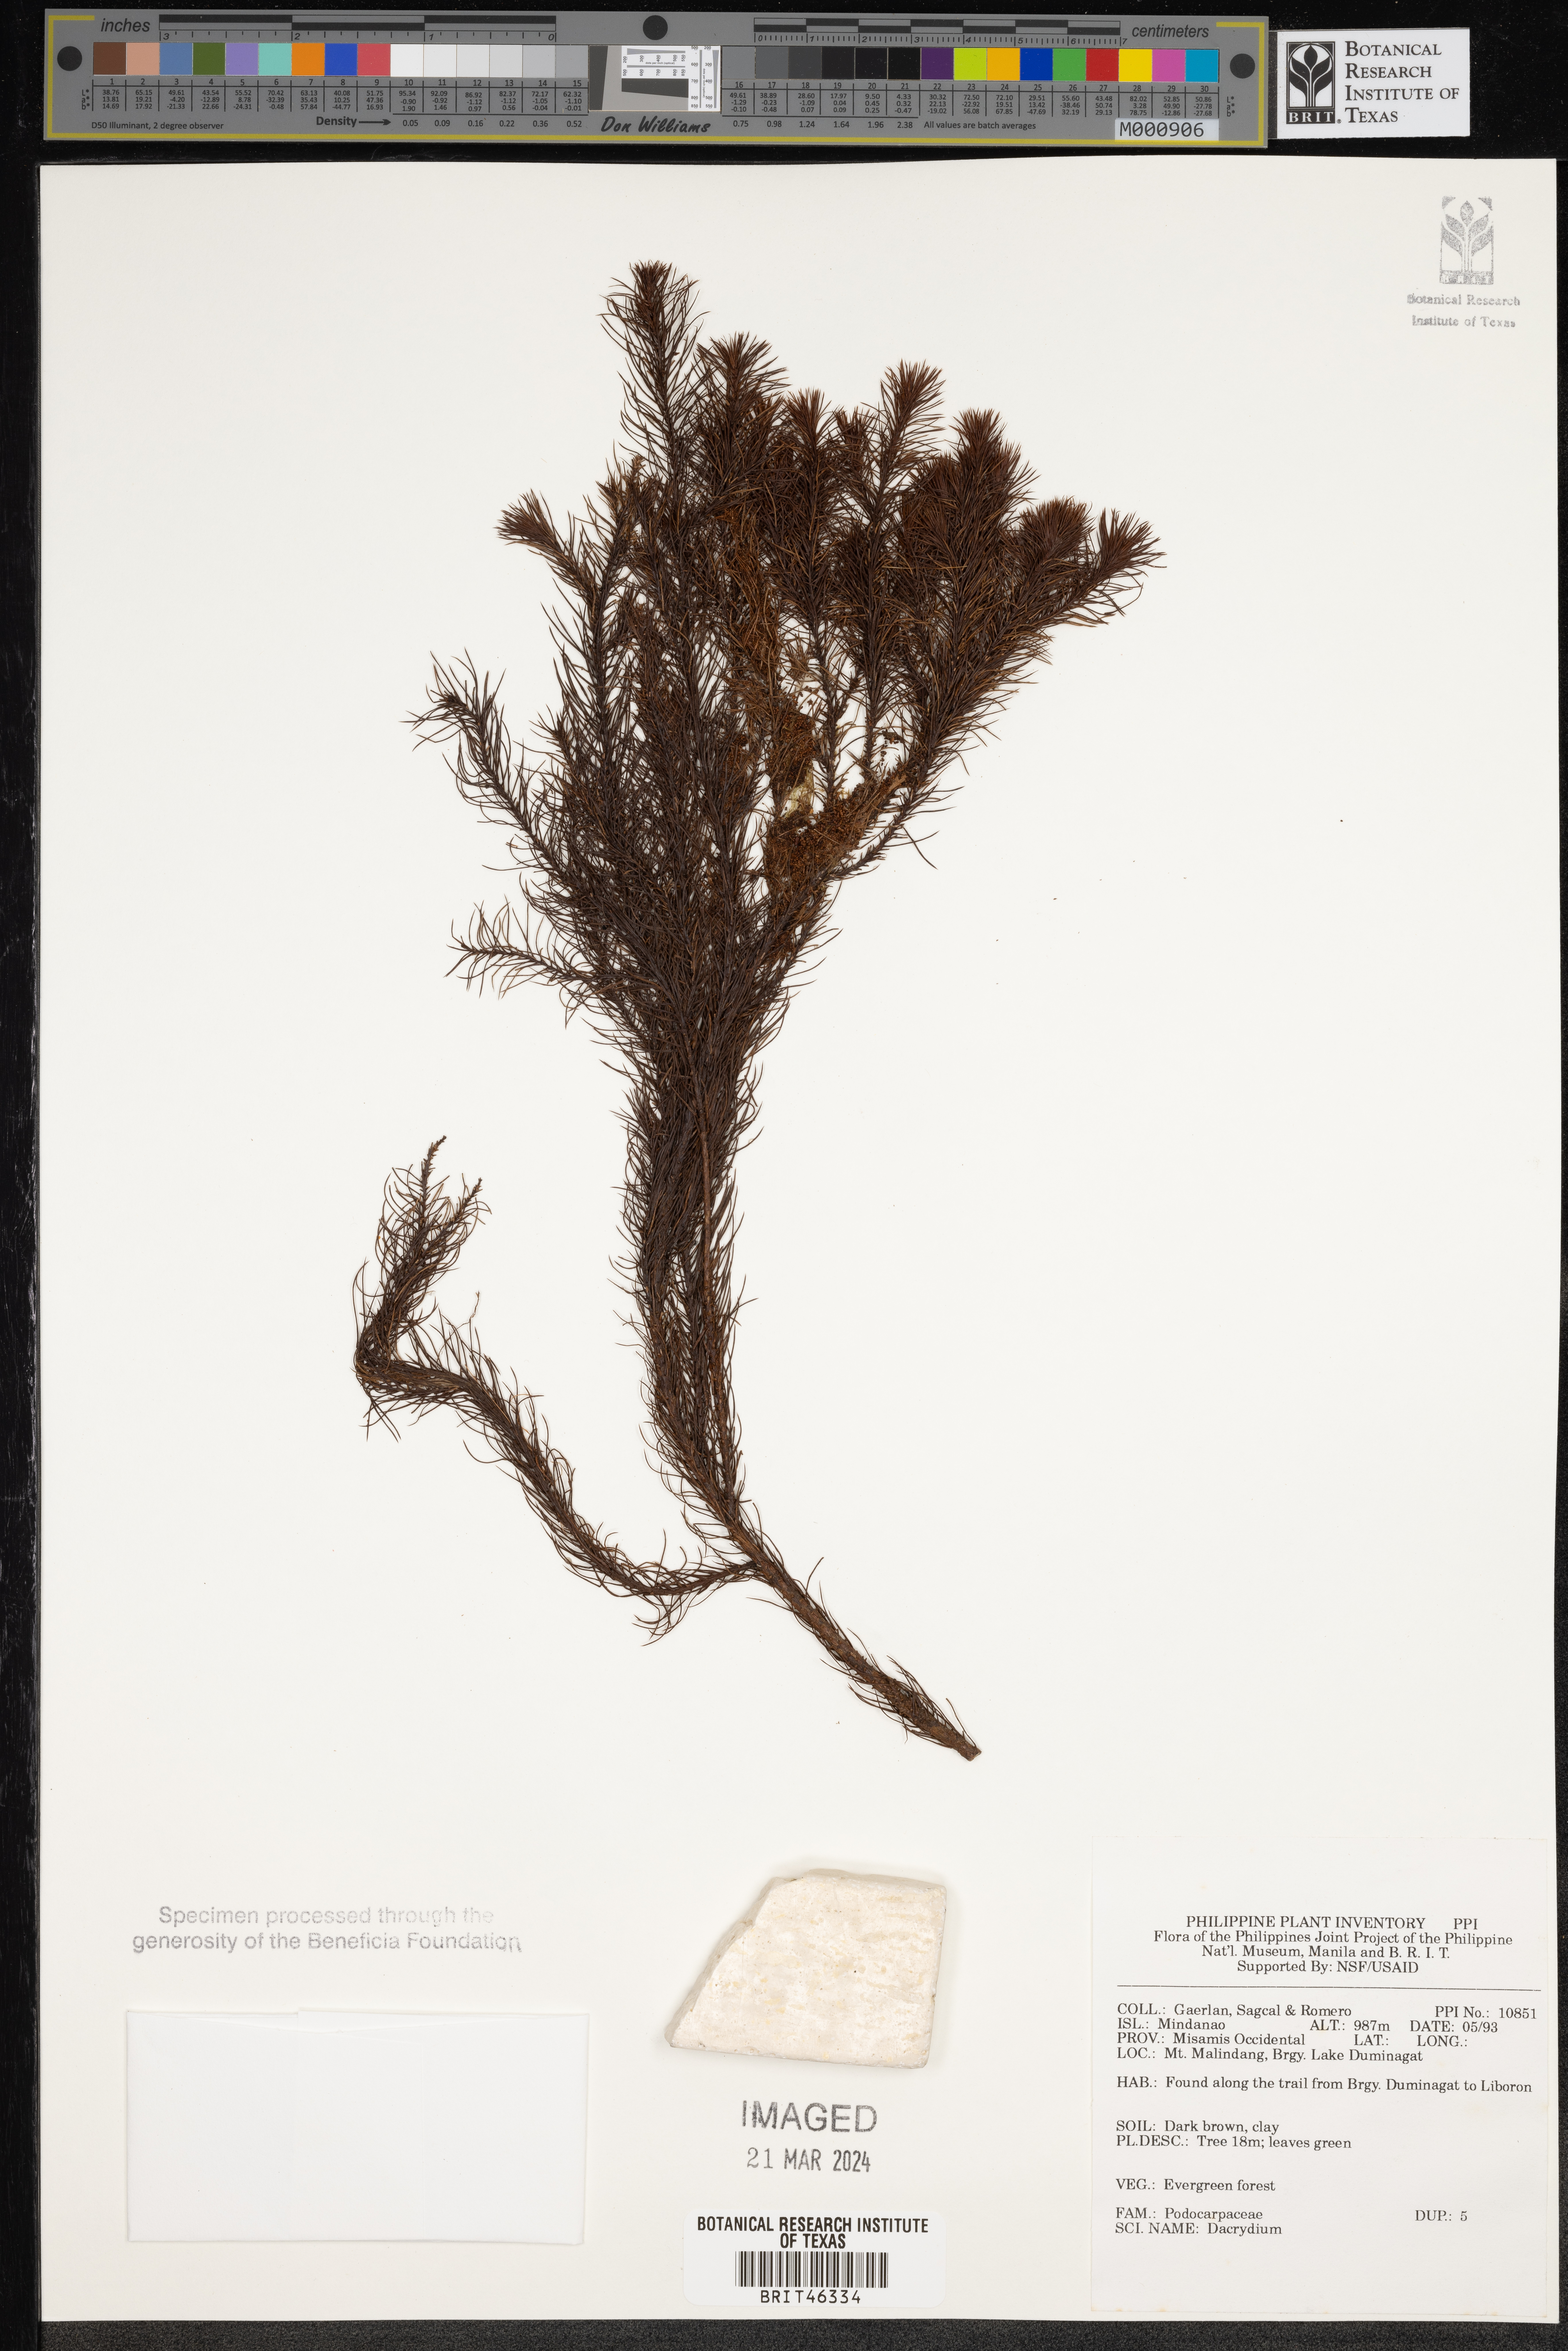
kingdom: Plantae
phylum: Tracheophyta
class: Pinopsida
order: Pinales
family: Podocarpaceae
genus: Dacrydium
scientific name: Dacrydium
